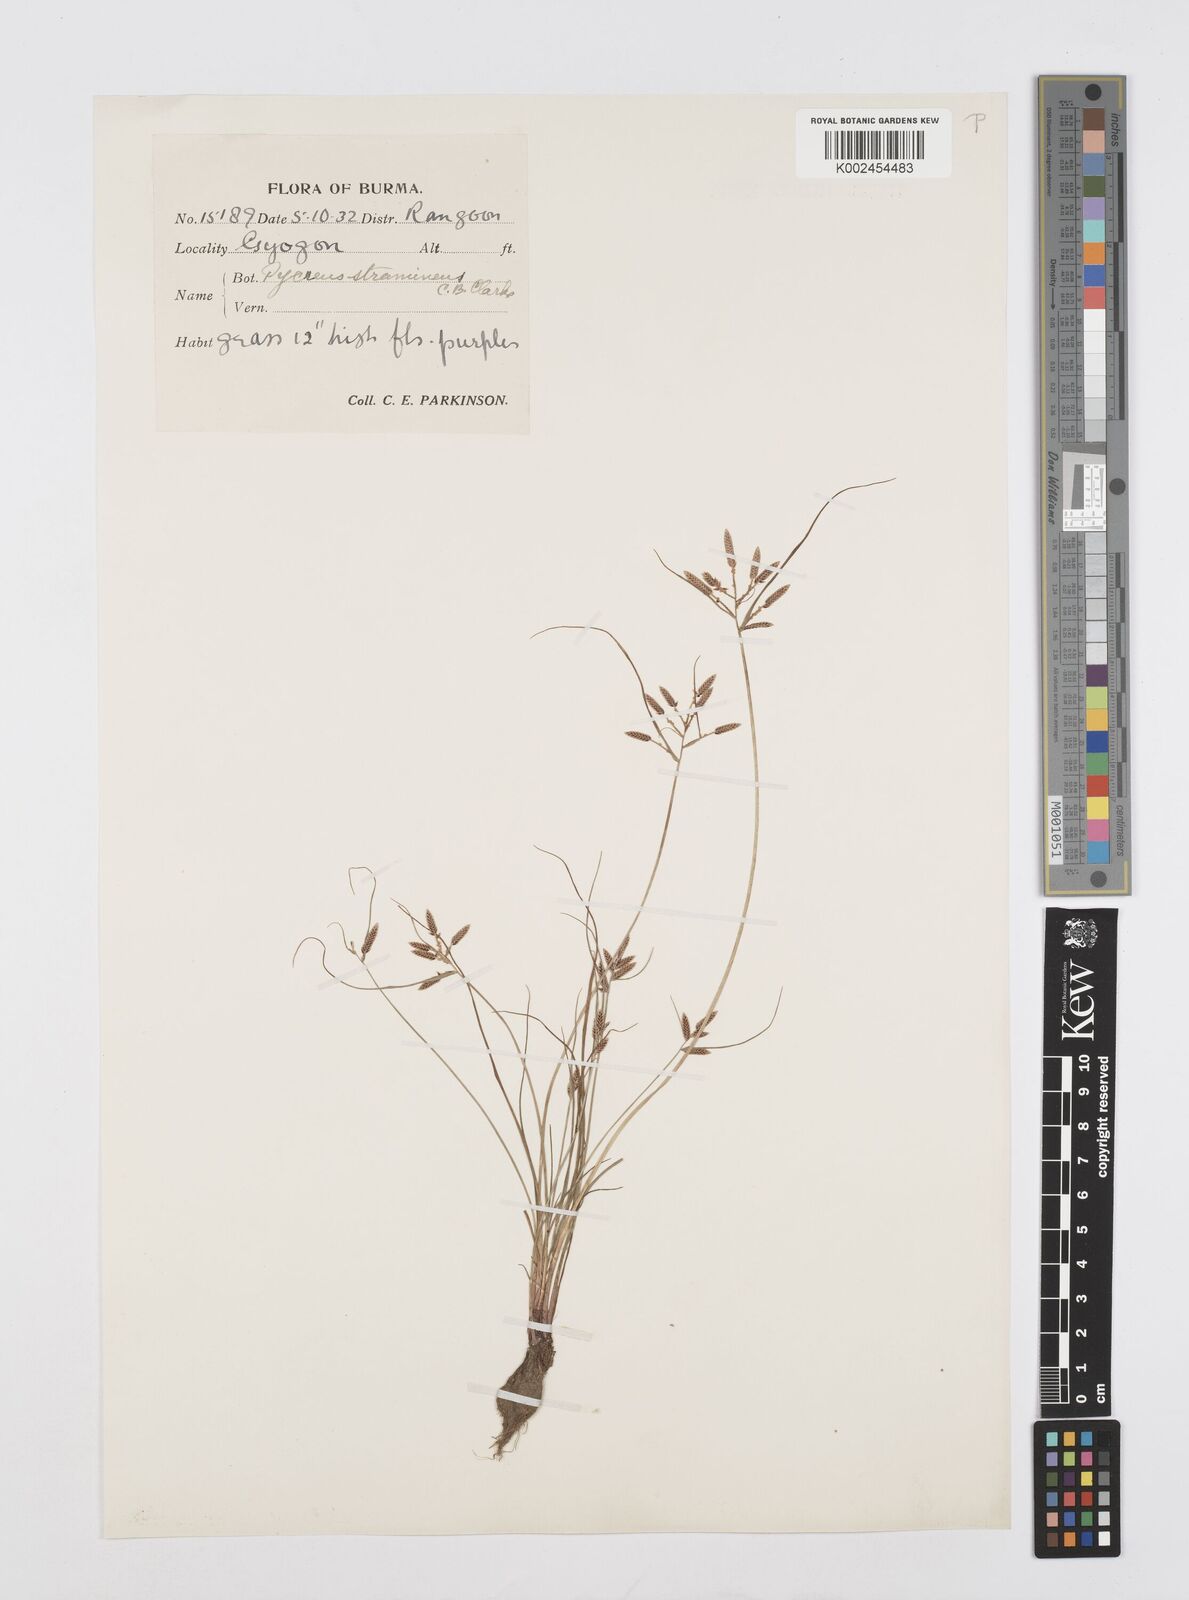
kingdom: Plantae
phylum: Tracheophyta
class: Liliopsida
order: Poales
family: Cyperaceae
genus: Cyperus
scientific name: Cyperus substramineus
